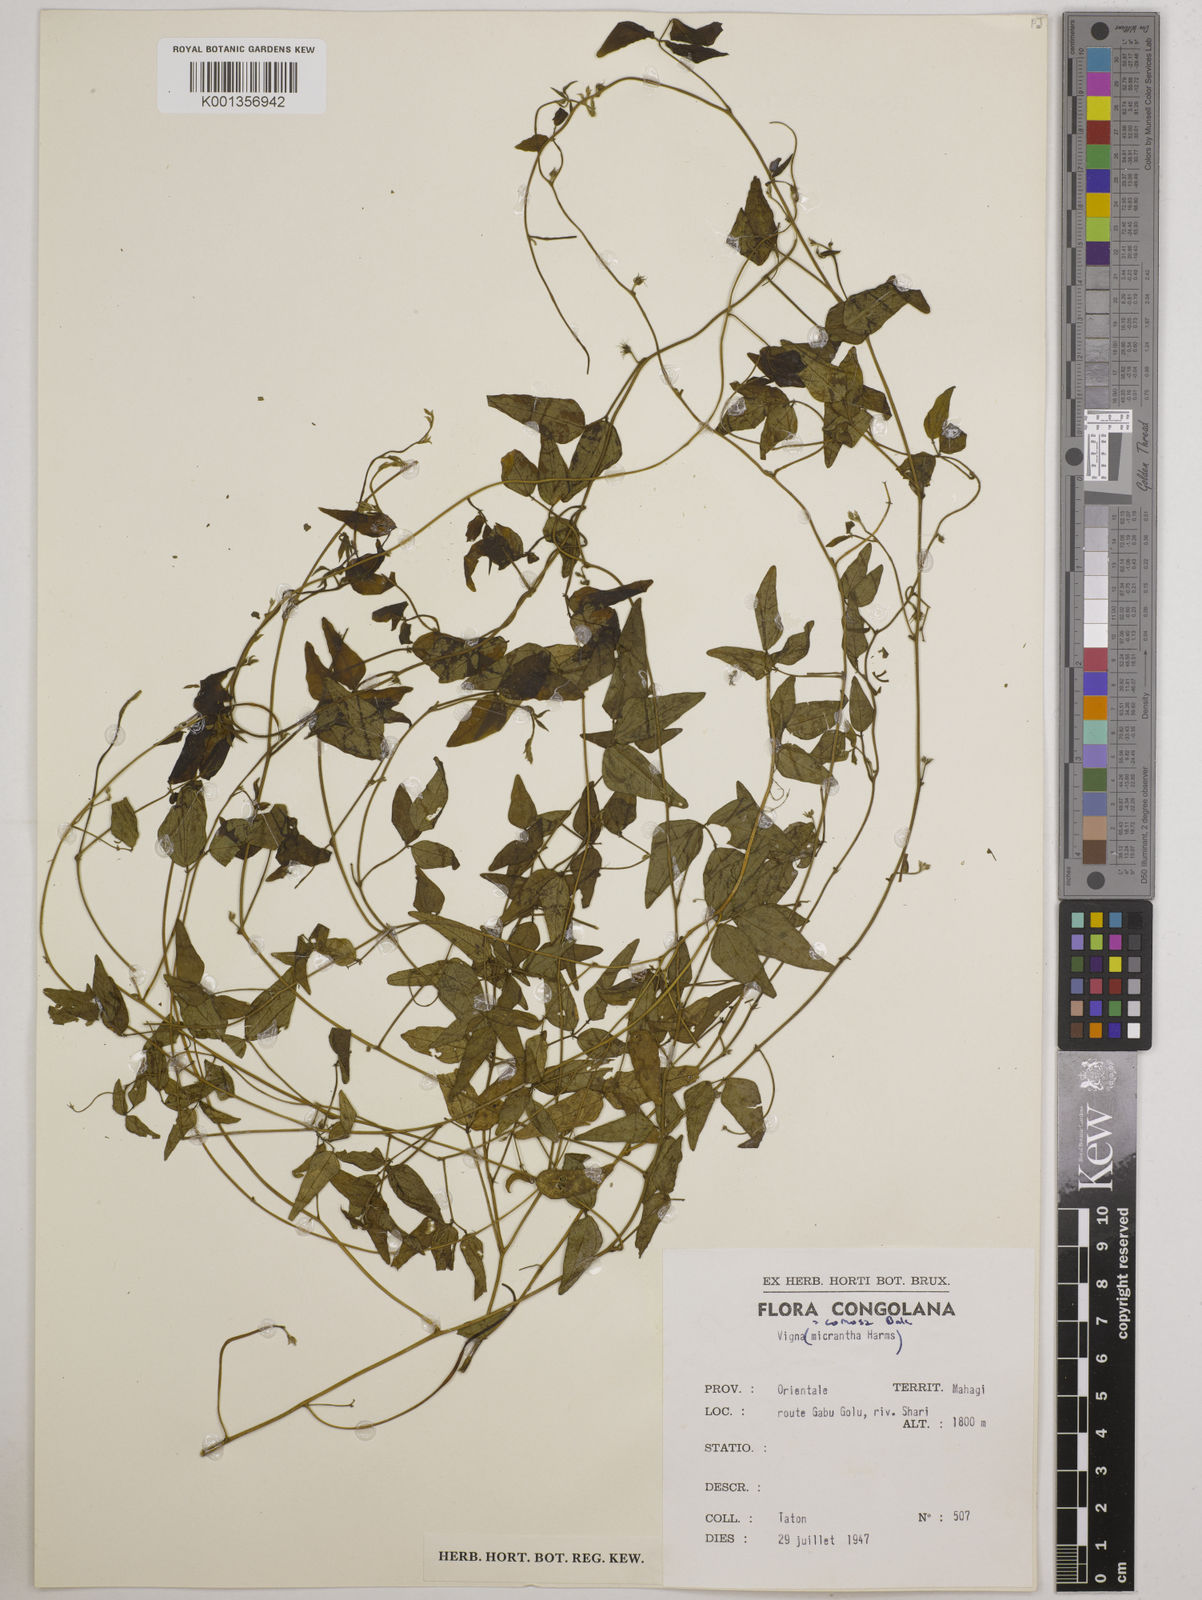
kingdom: Plantae
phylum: Tracheophyta
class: Magnoliopsida
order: Fabales
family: Fabaceae
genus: Vigna
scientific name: Vigna comosa
